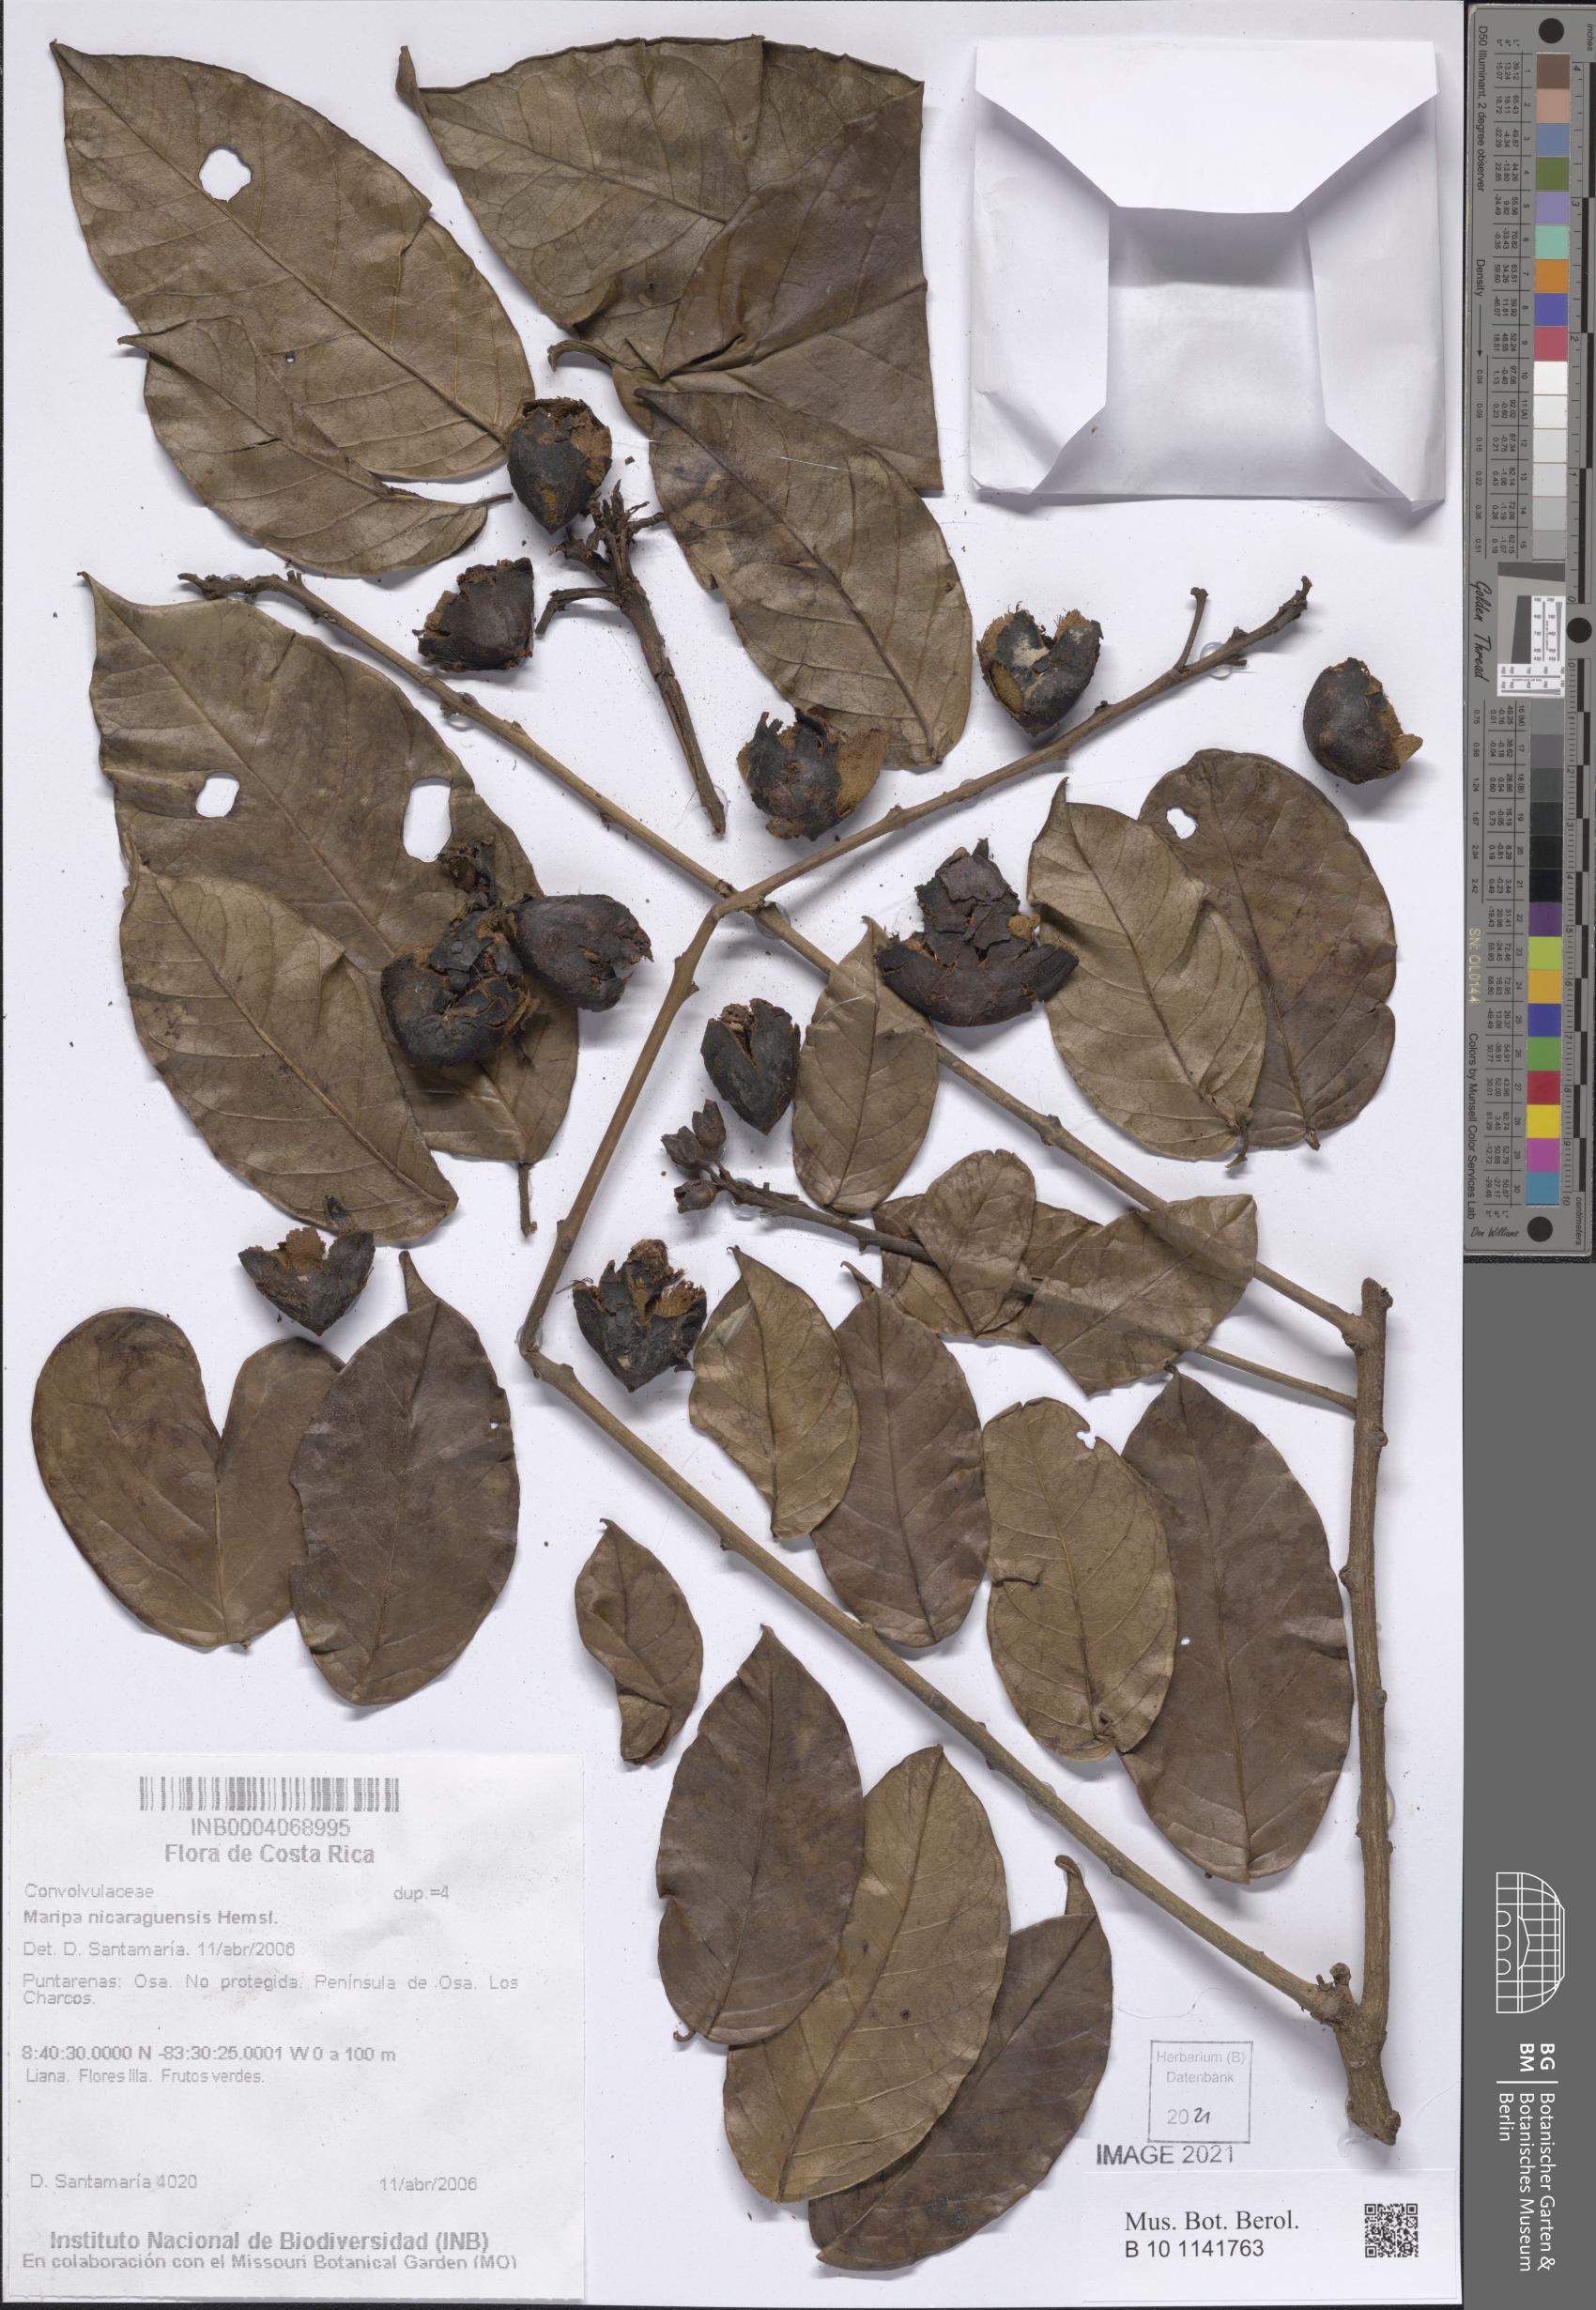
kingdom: Plantae
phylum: Tracheophyta
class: Magnoliopsida
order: Solanales
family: Convolvulaceae
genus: Maripa
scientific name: Maripa nicaraguensis
